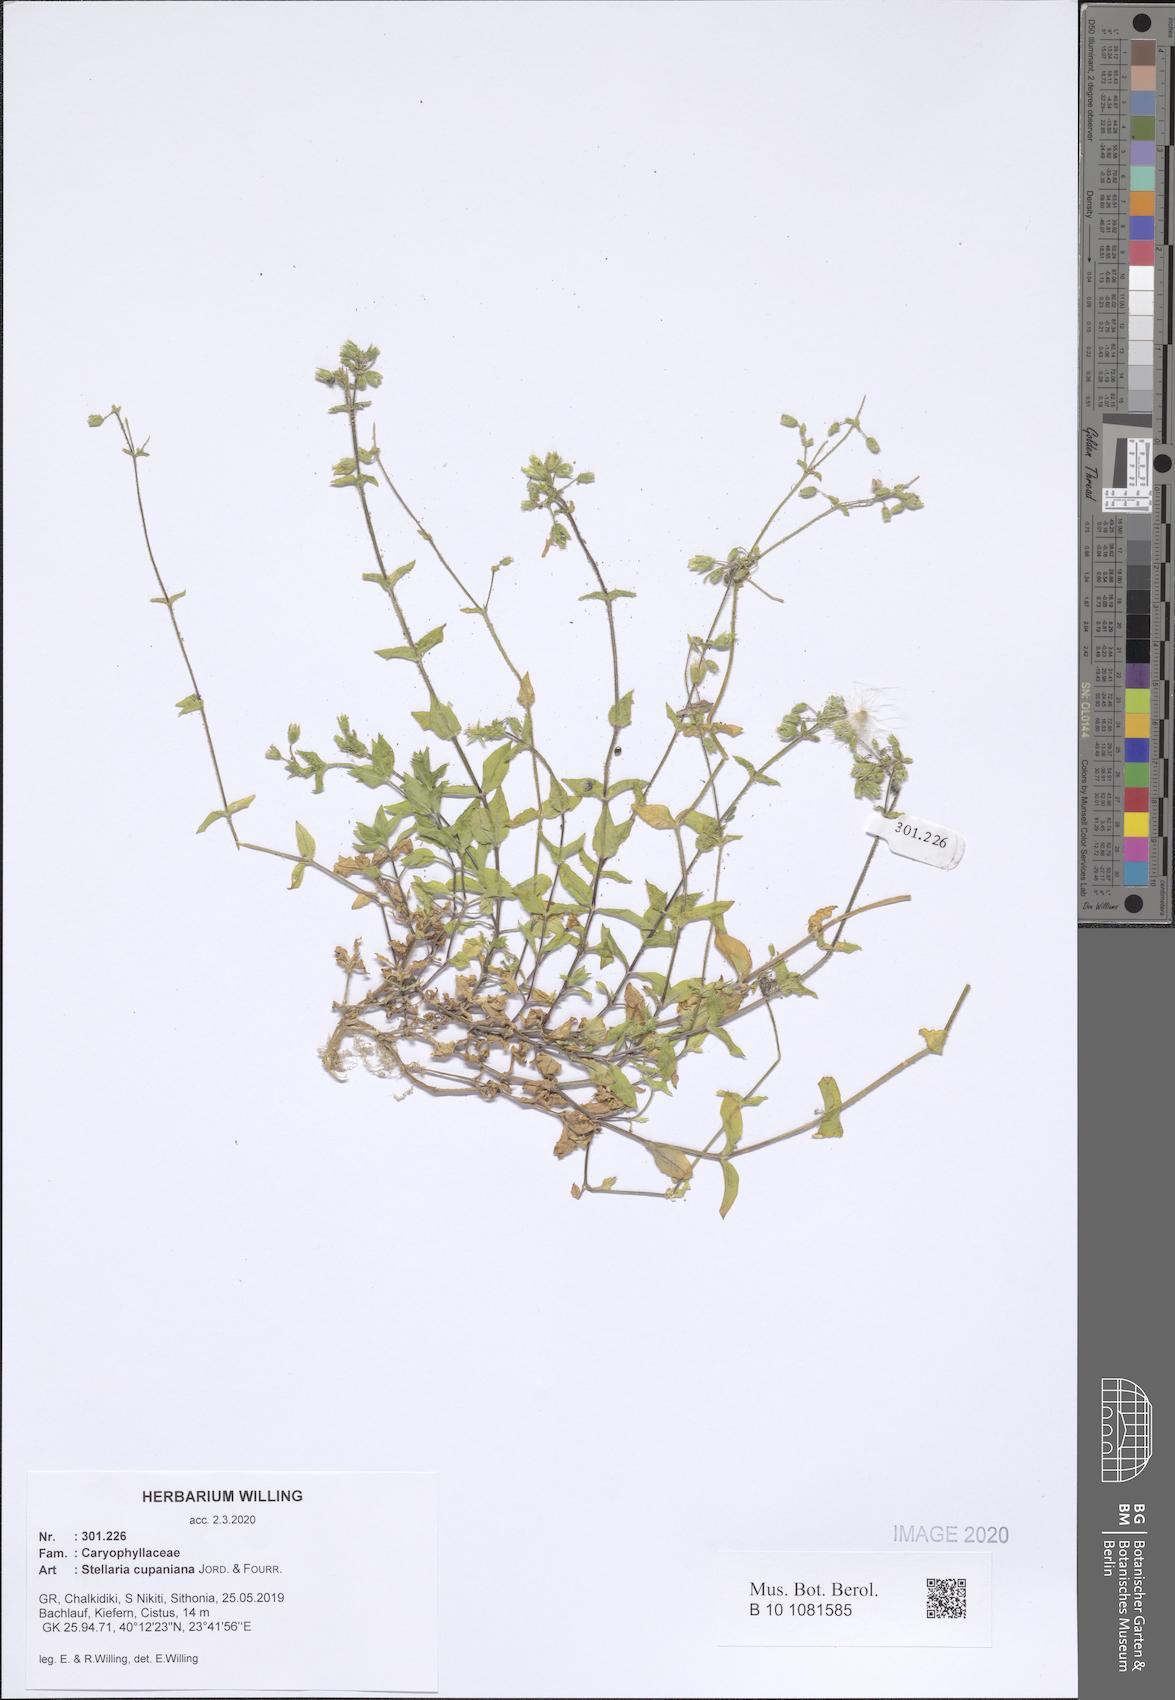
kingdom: Plantae
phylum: Tracheophyta
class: Magnoliopsida
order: Caryophyllales
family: Caryophyllaceae
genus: Stellaria
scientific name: Stellaria cupaniana
